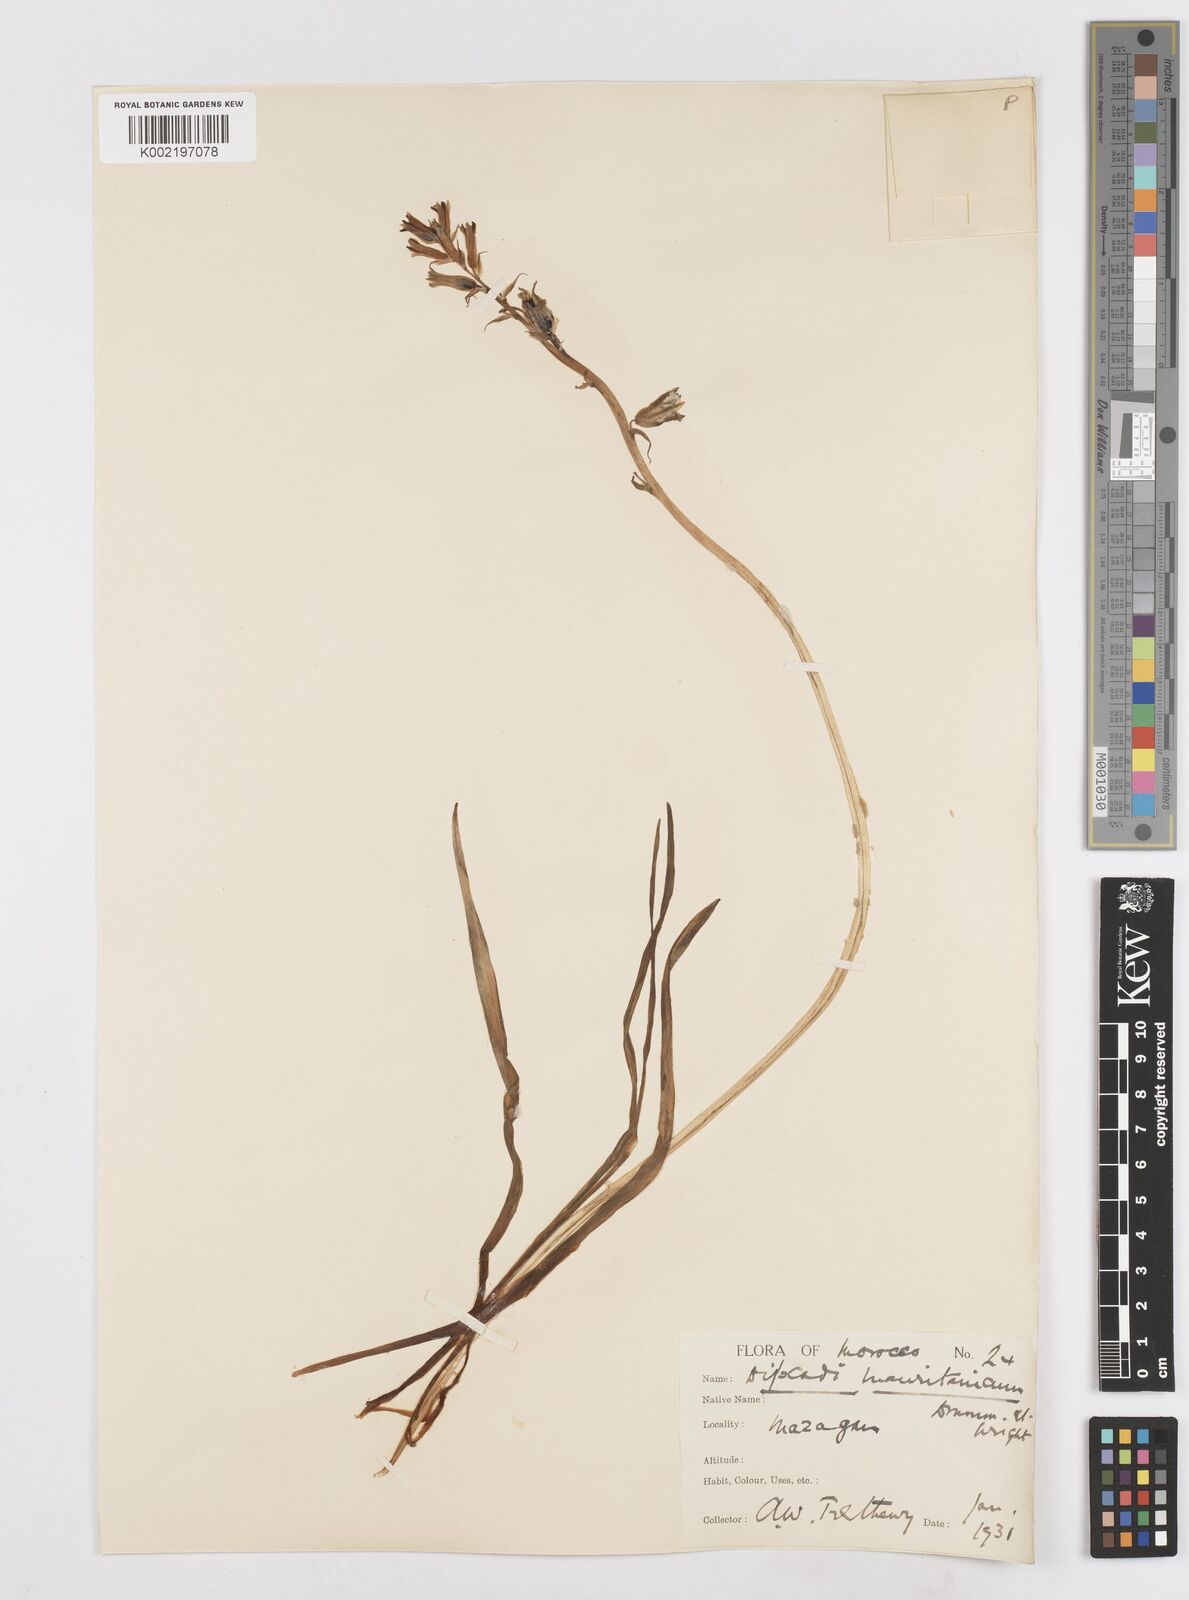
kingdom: Plantae
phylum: Tracheophyta
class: Liliopsida
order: Asparagales
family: Asparagaceae
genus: Dipcadi
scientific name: Dipcadi serotinum
